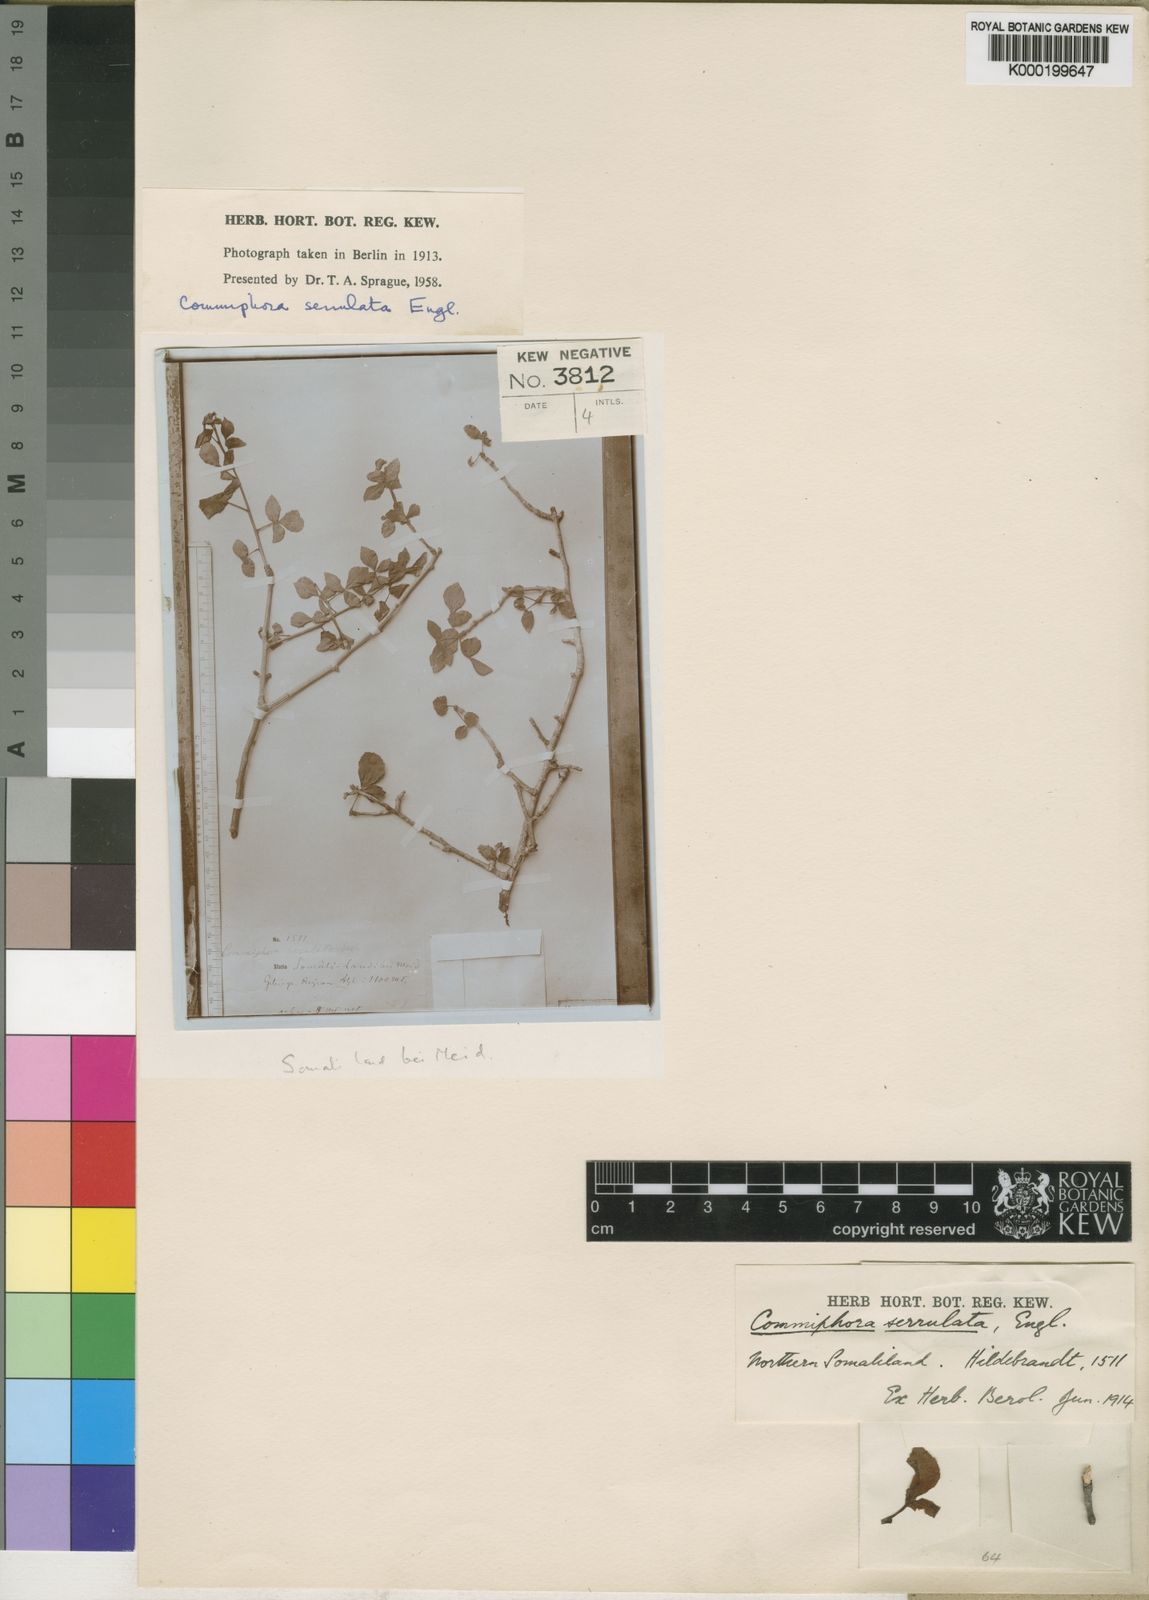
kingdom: Plantae
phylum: Tracheophyta
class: Magnoliopsida
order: Sapindales
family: Burseraceae
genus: Commiphora
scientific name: Commiphora serrulata
